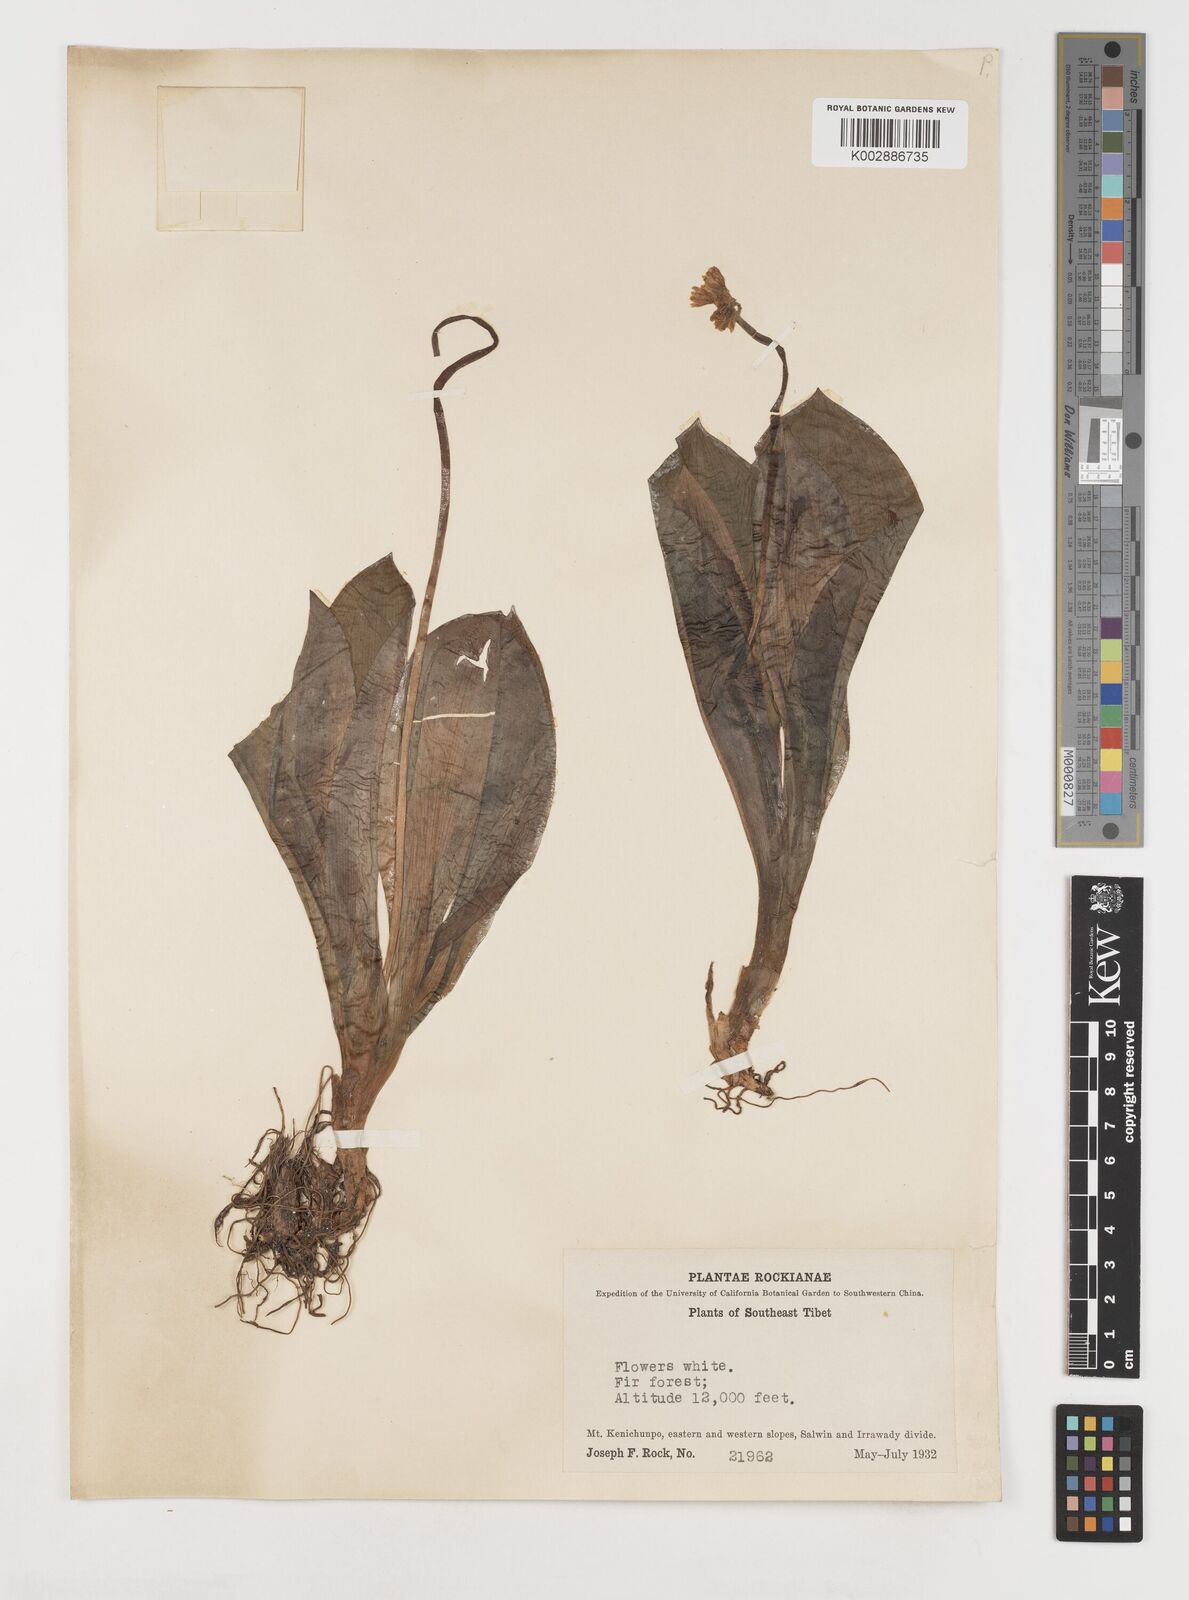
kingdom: Plantae
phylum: Tracheophyta
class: Liliopsida
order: Liliales
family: Liliaceae
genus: Clintonia
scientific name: Clintonia udensis
